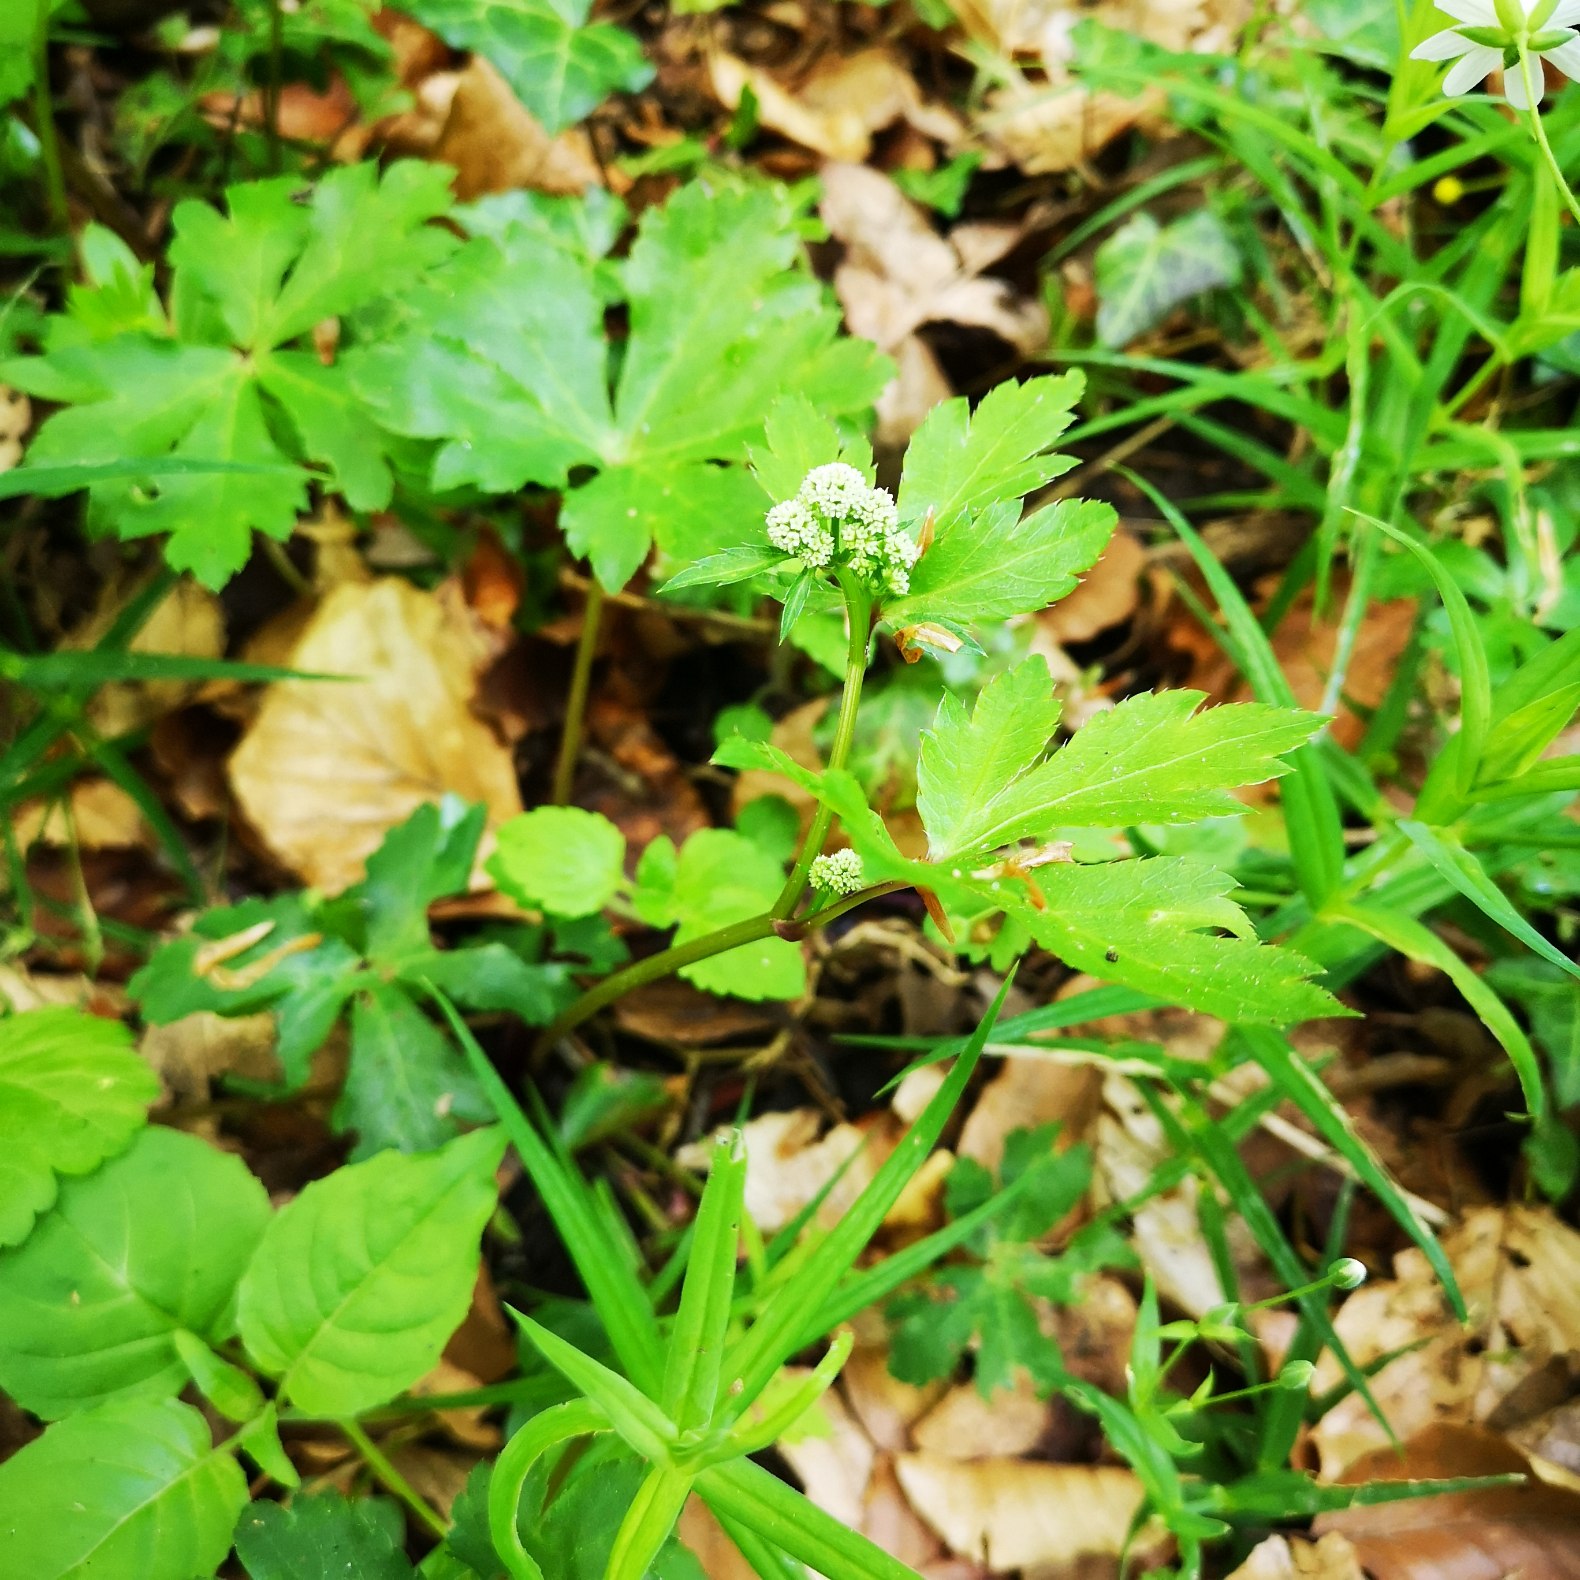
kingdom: Plantae
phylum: Tracheophyta
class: Magnoliopsida
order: Apiales
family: Apiaceae
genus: Sanicula
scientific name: Sanicula europaea
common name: Sanikel
